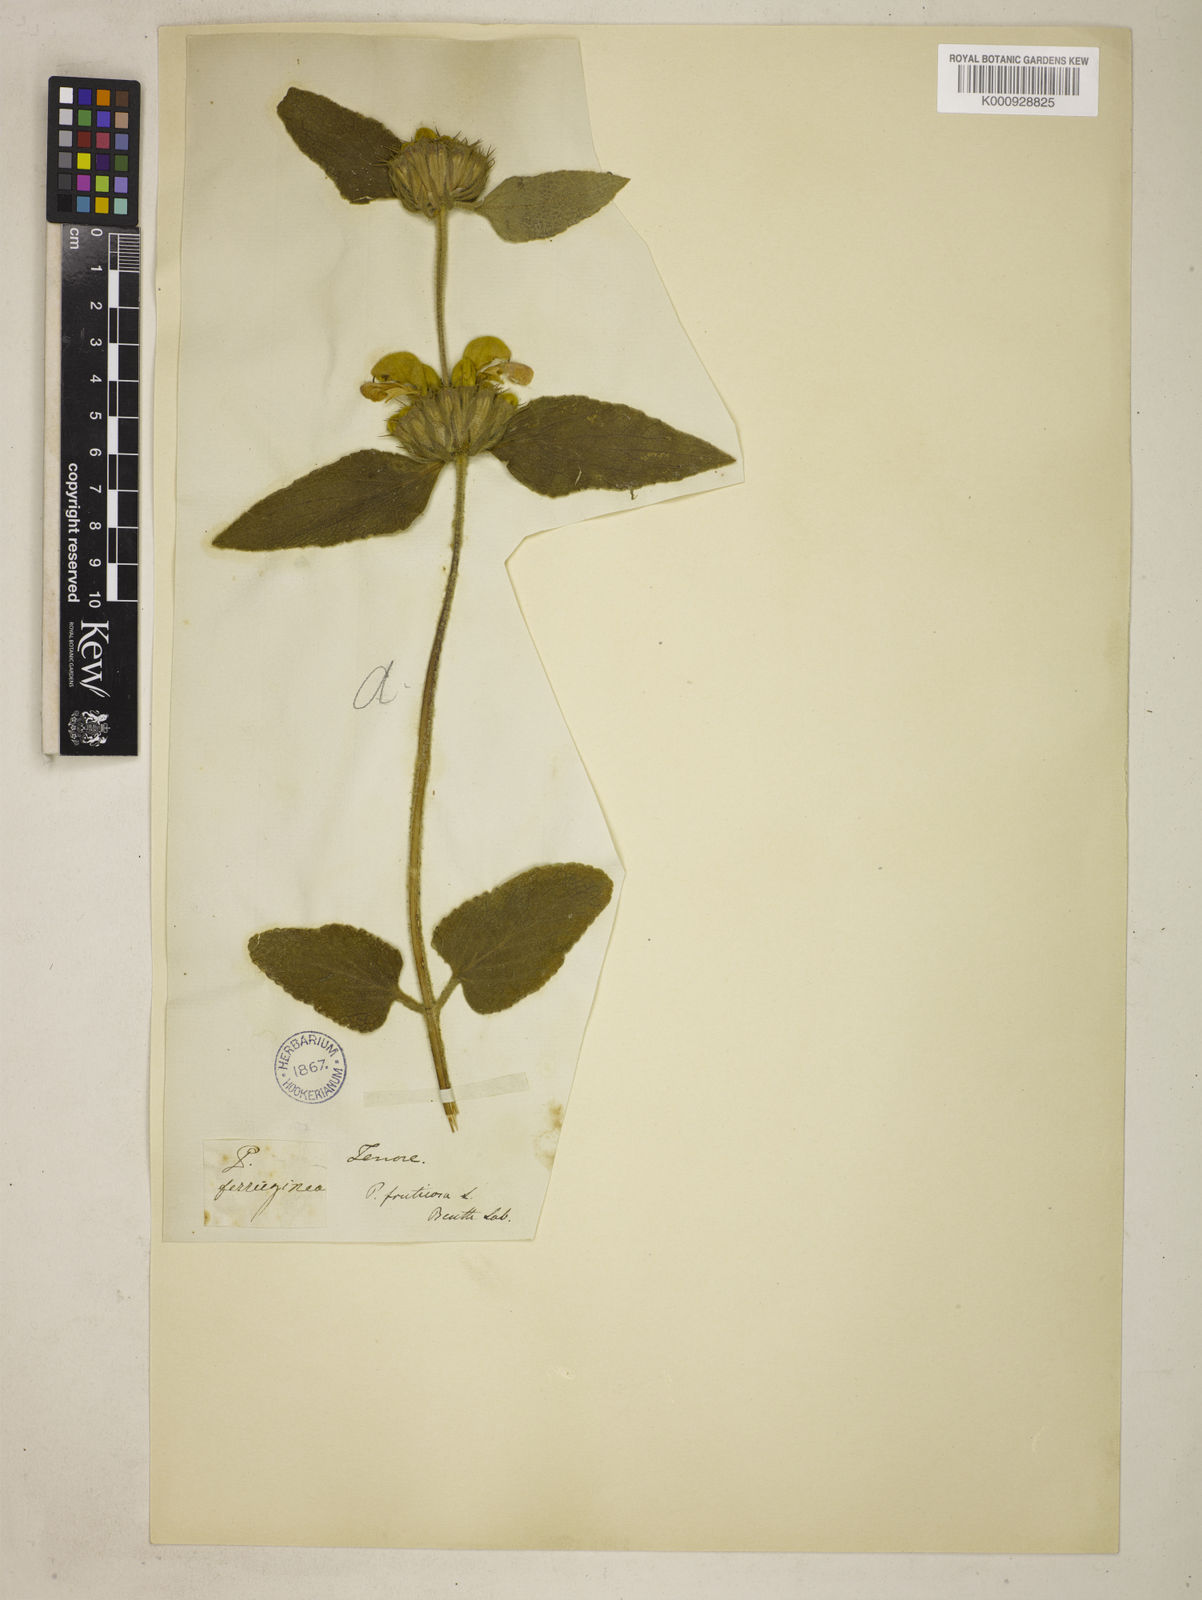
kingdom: Plantae
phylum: Tracheophyta
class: Magnoliopsida
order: Lamiales
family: Lamiaceae
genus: Phlomis
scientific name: Phlomis tenorei
